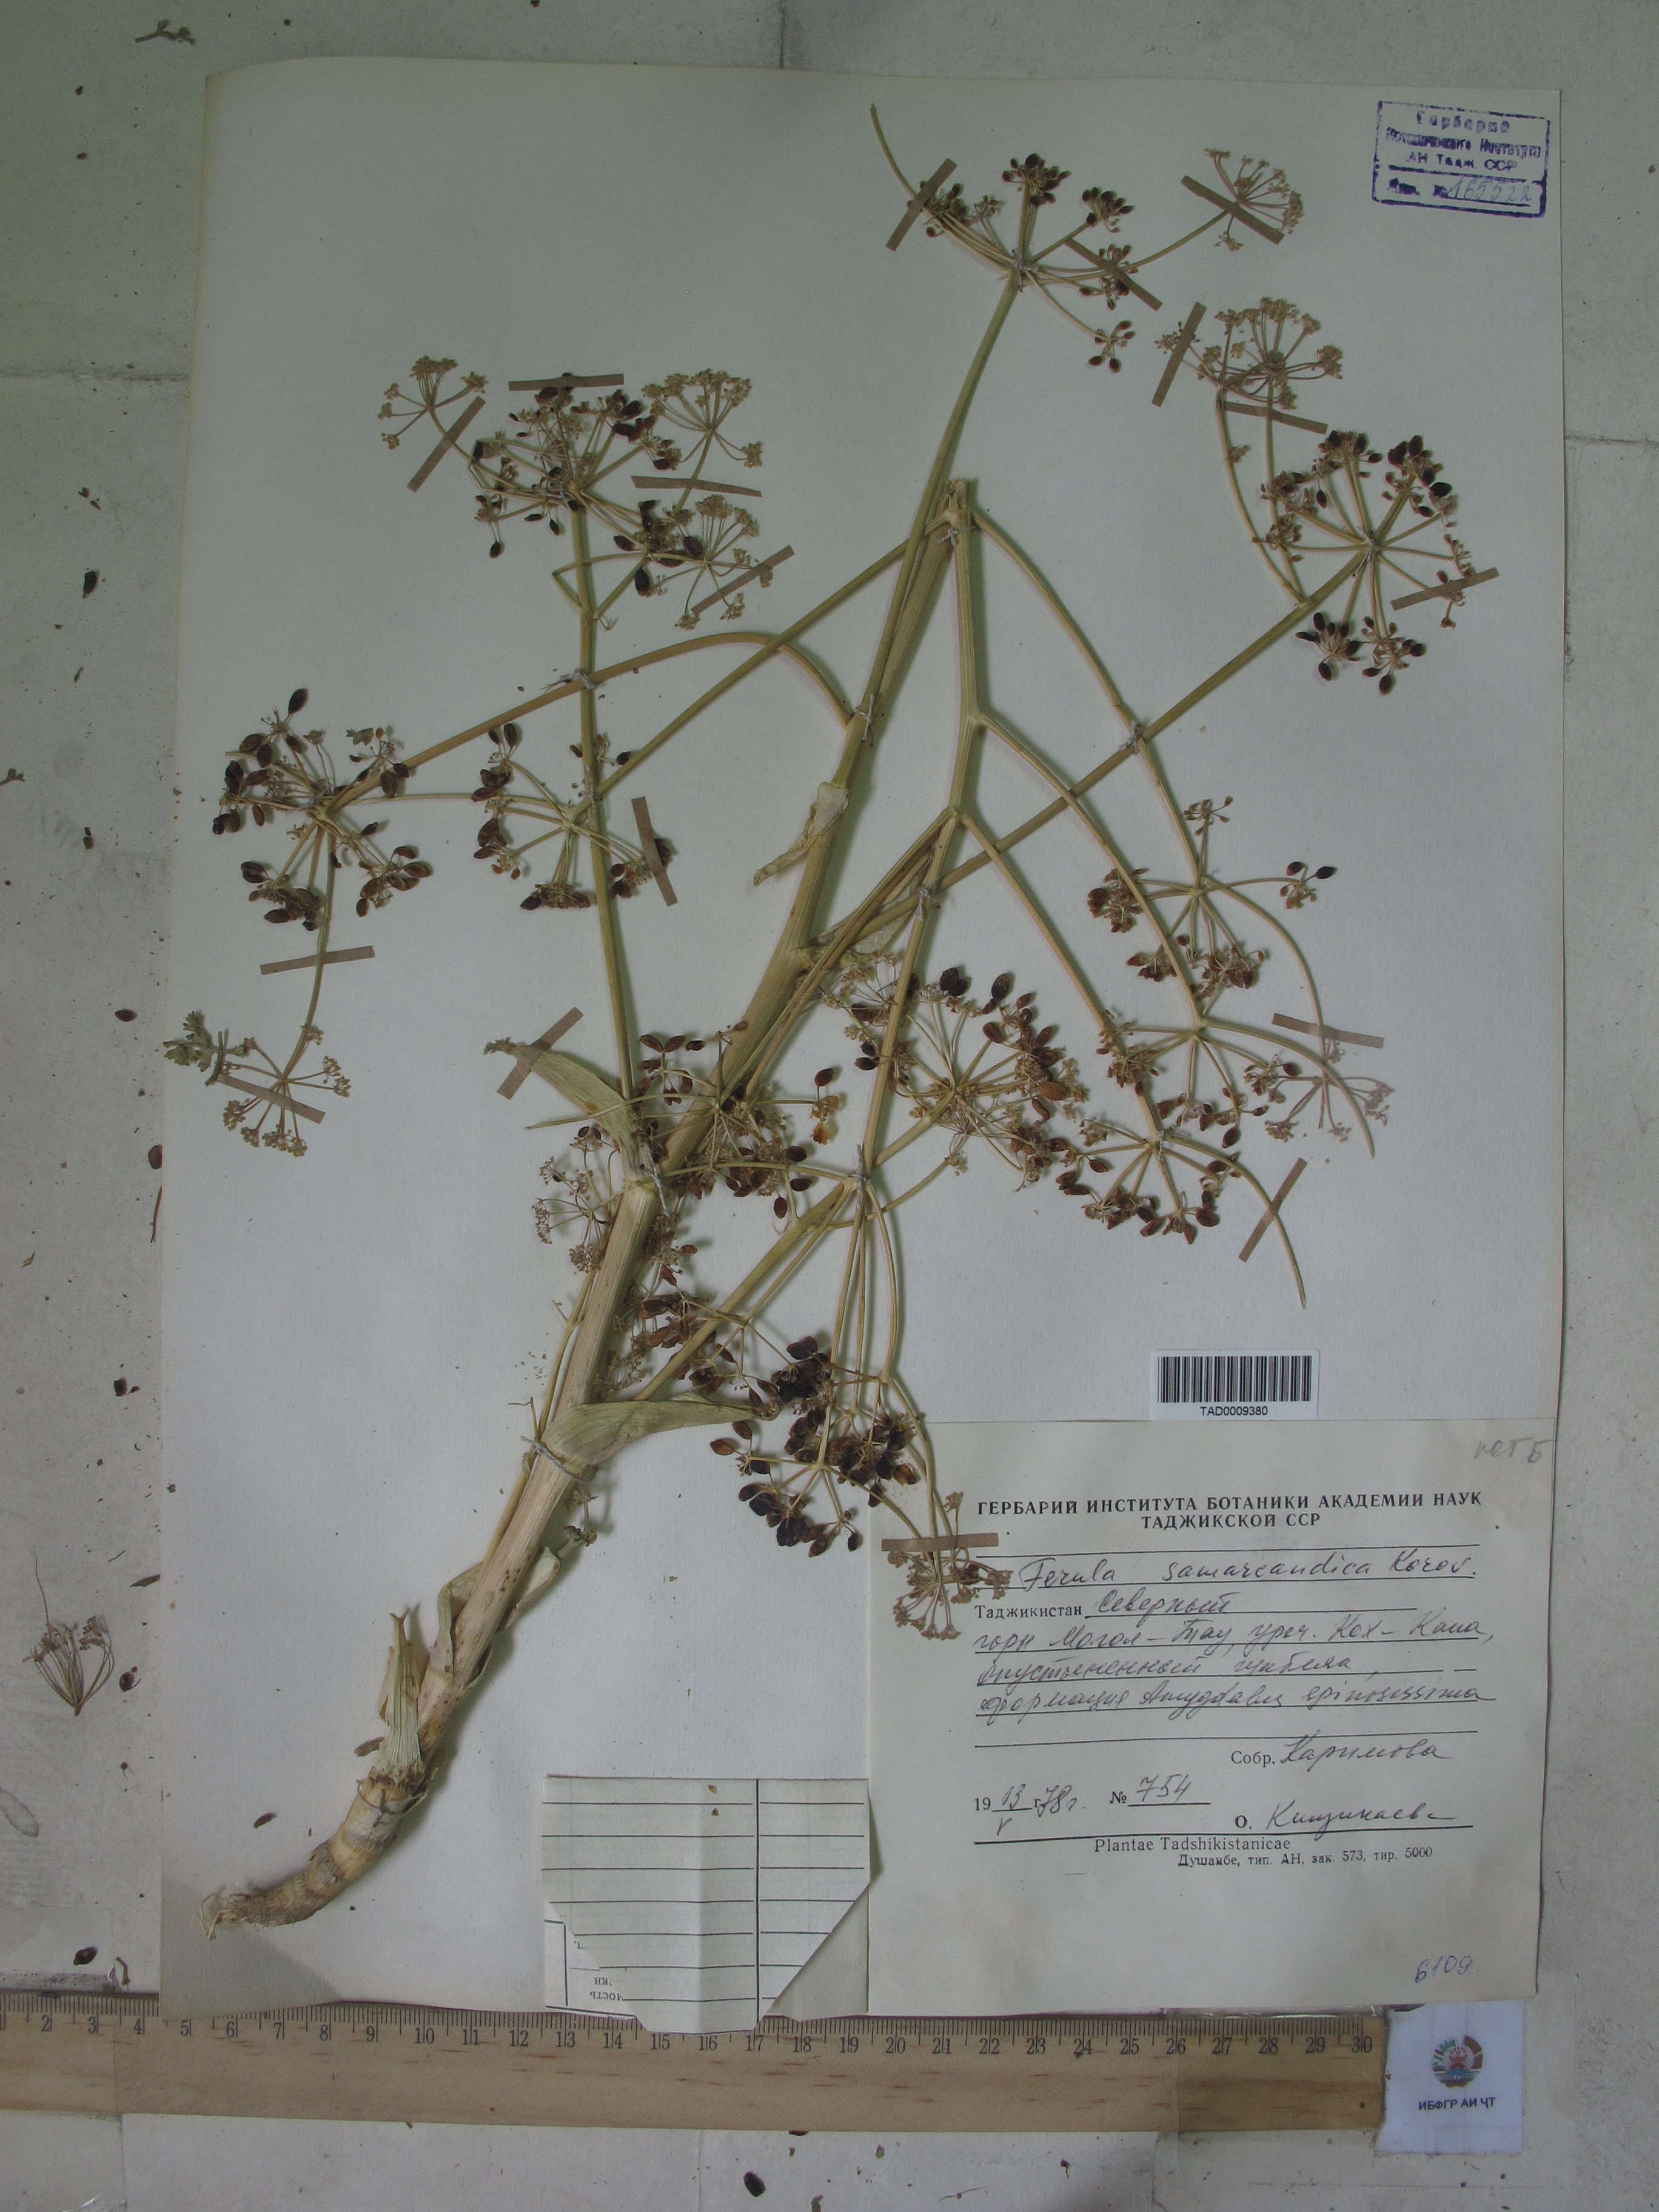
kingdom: Plantae
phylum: Tracheophyta
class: Magnoliopsida
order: Apiales
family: Apiaceae
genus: Ferula
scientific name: Ferula samarkandica
